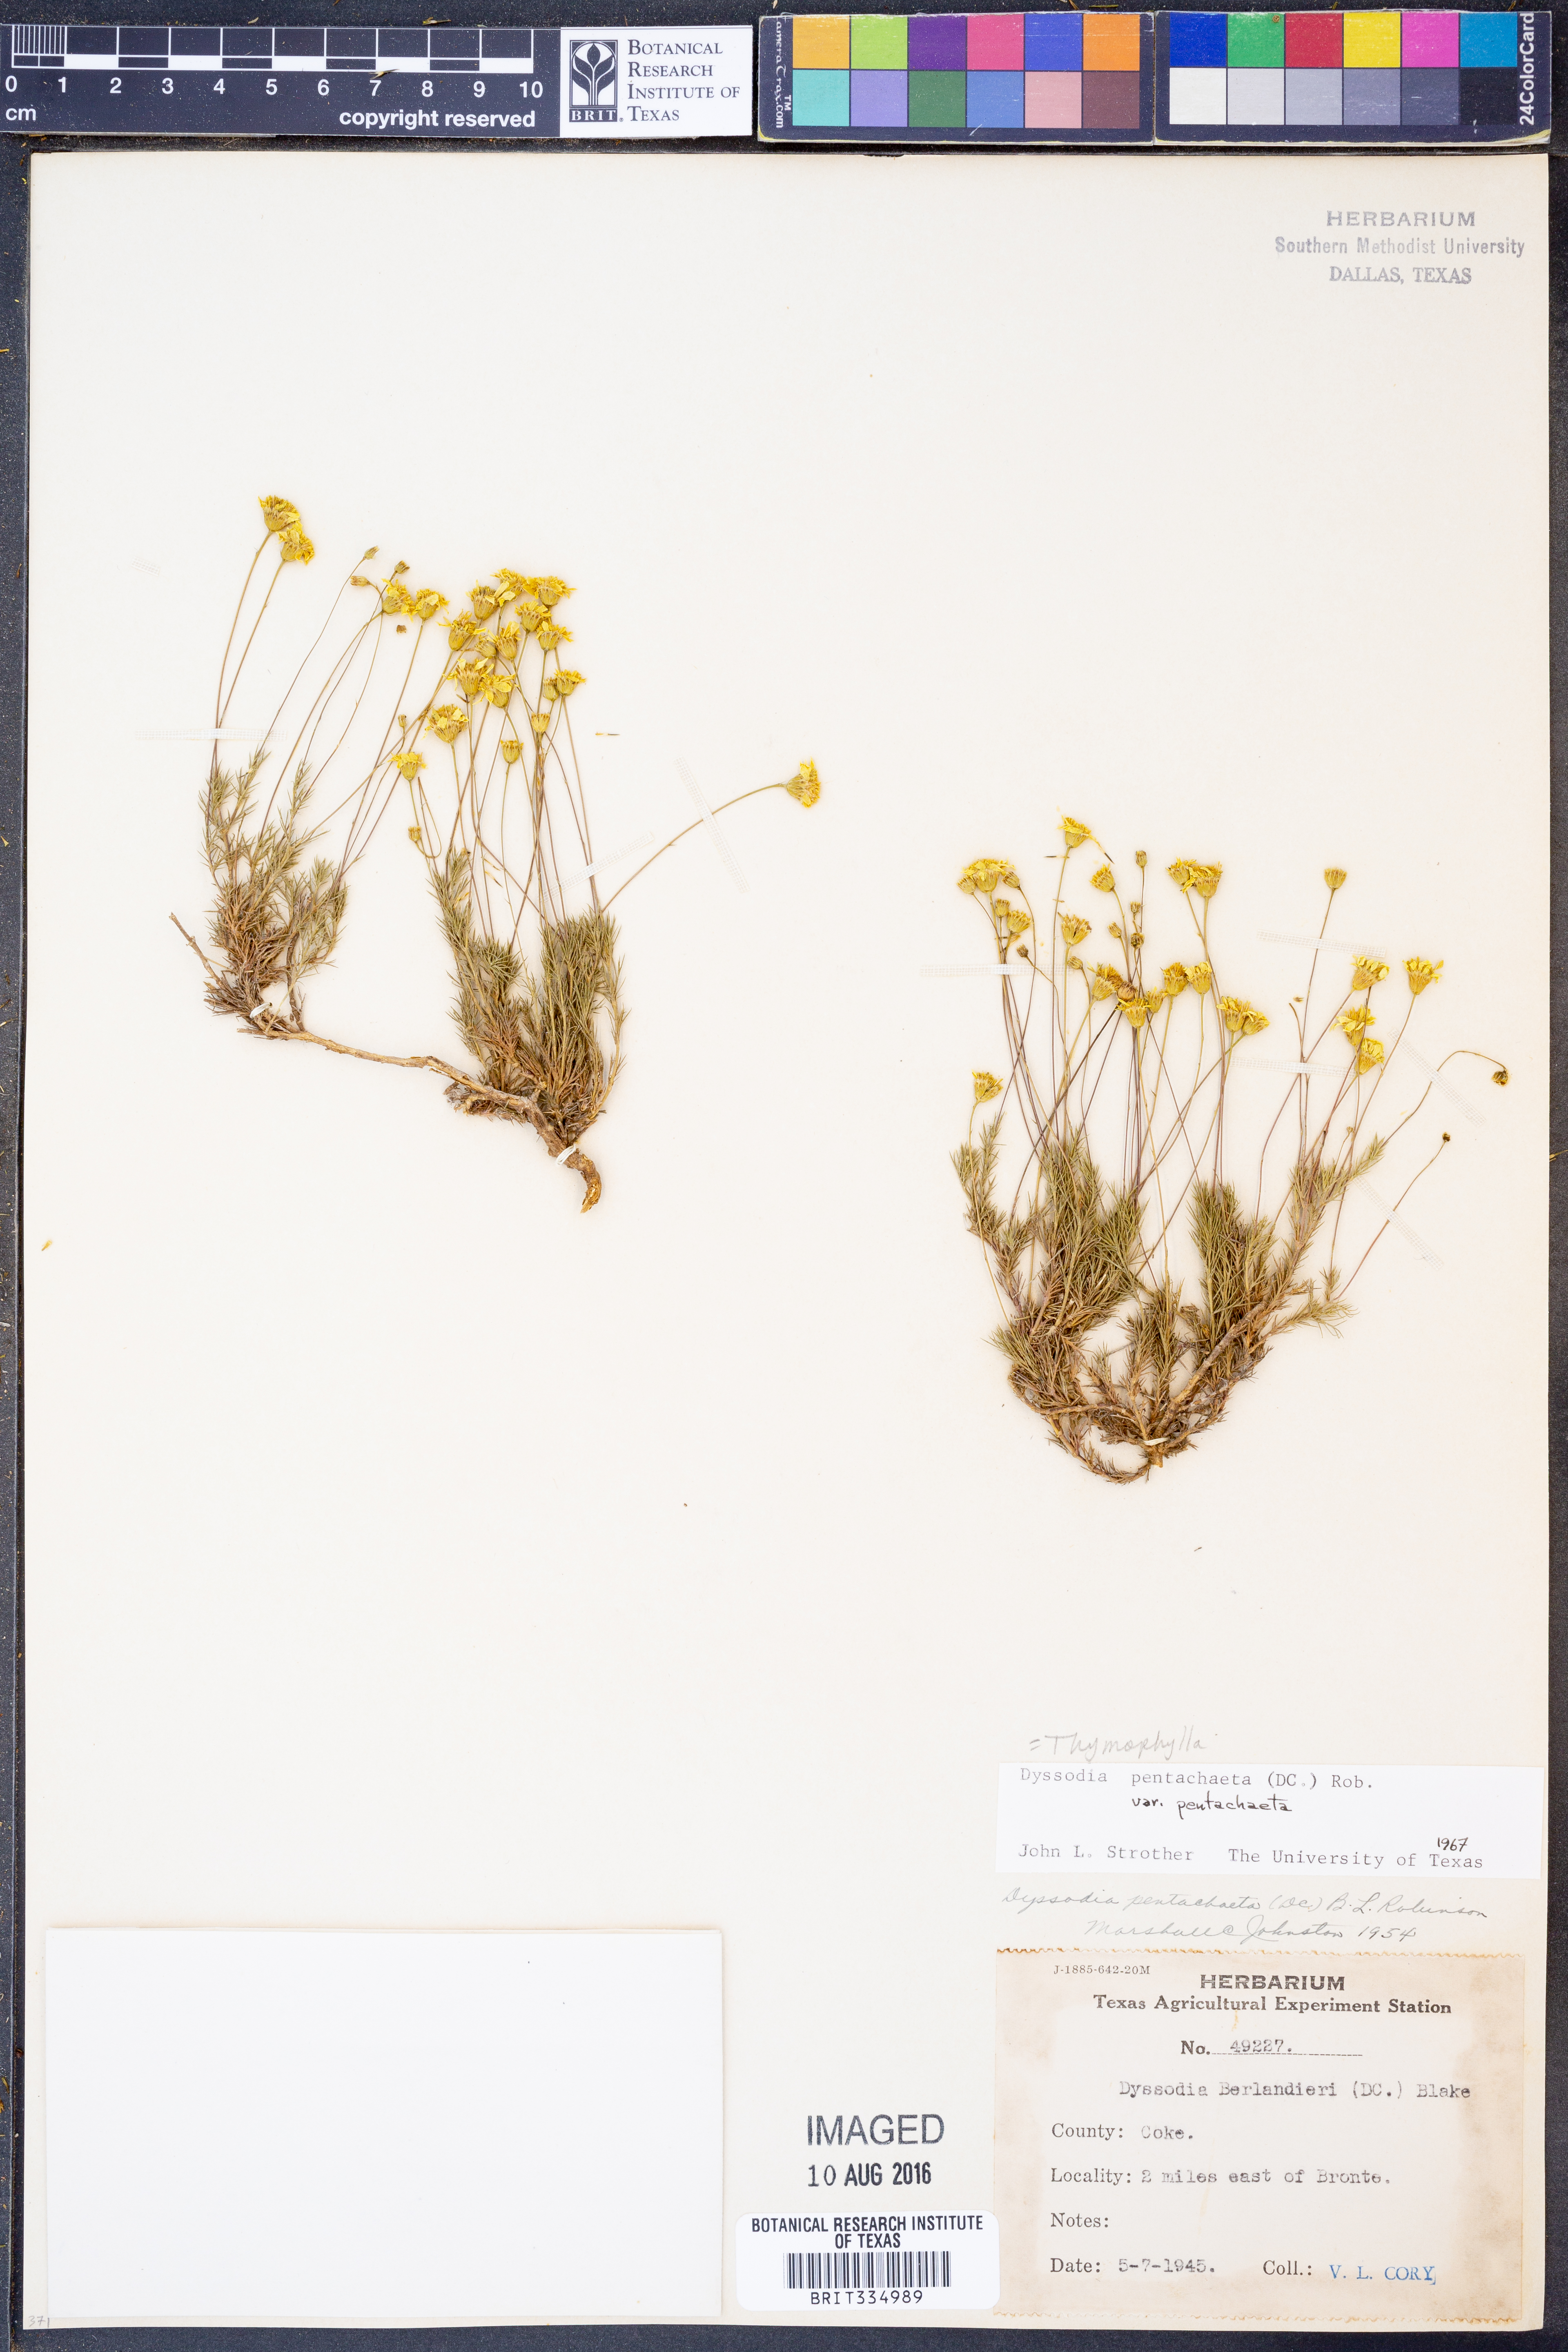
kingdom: Plantae
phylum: Tracheophyta
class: Magnoliopsida
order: Asterales
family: Asteraceae
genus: Thymophylla
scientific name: Thymophylla pentachaeta
